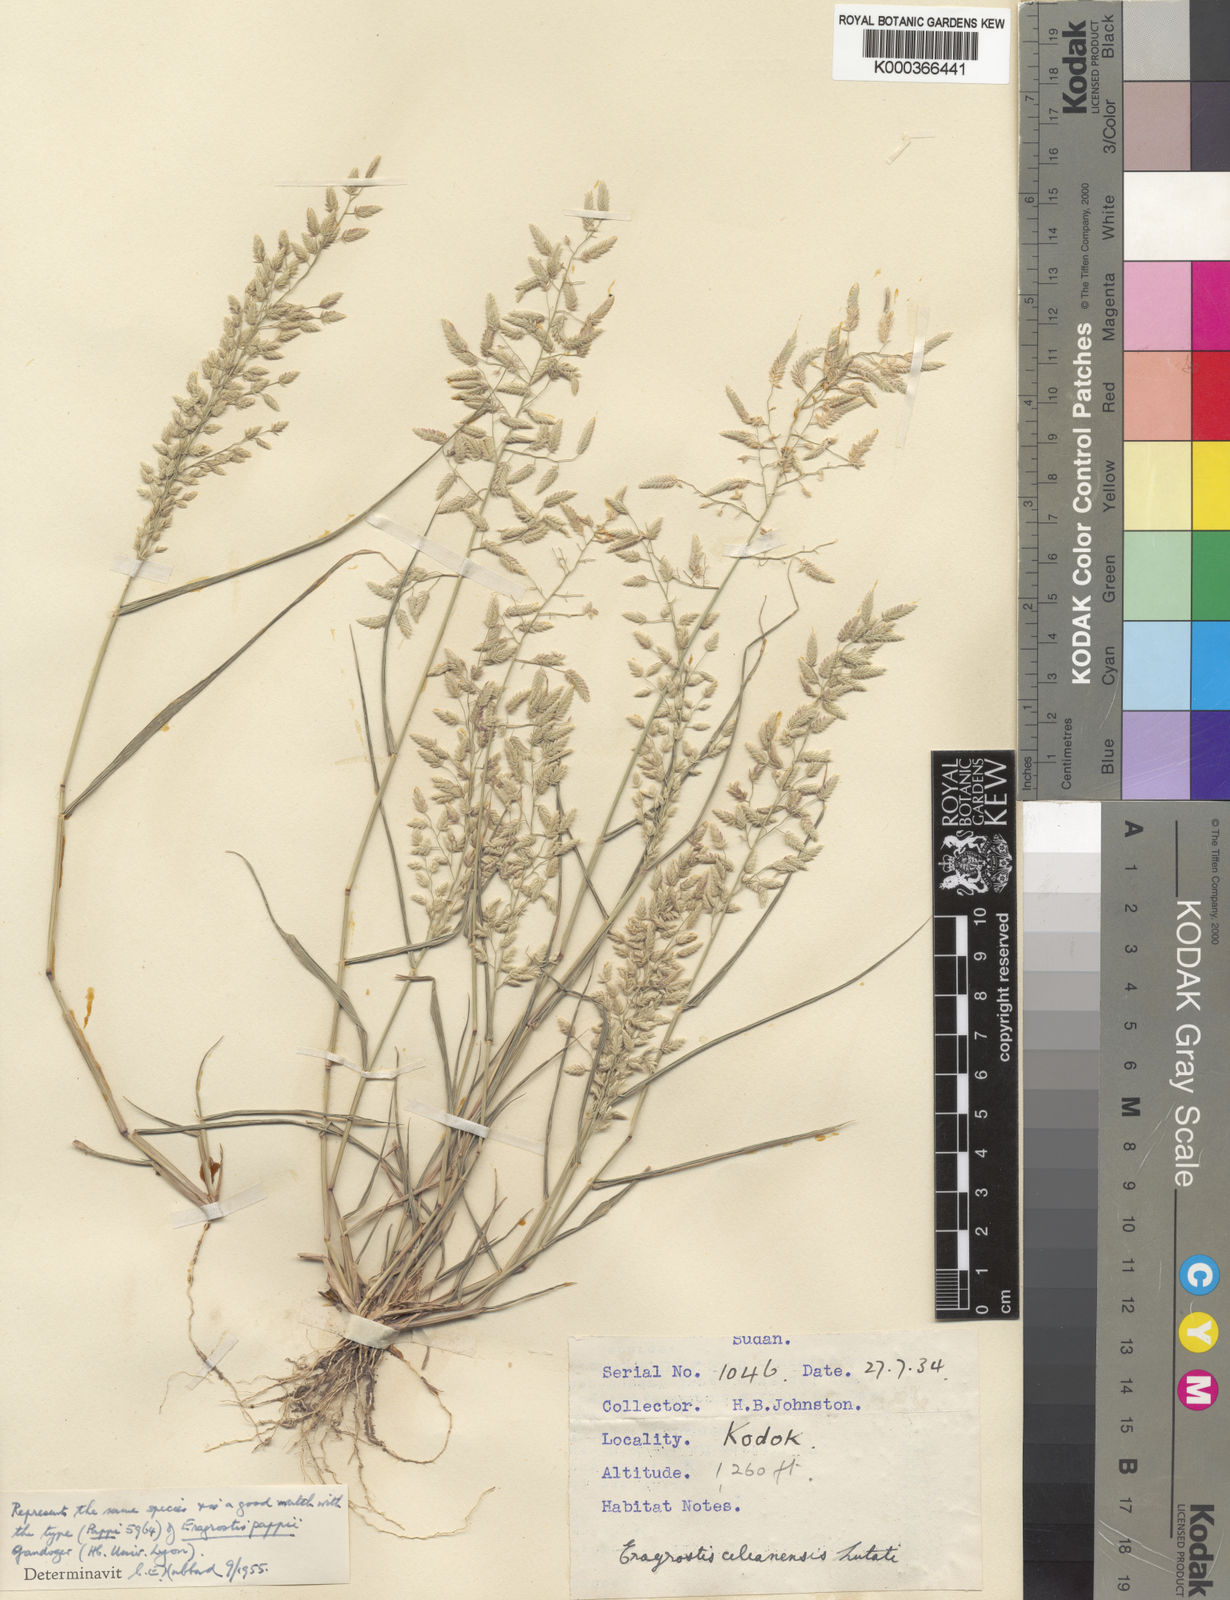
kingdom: Plantae
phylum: Tracheophyta
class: Liliopsida
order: Poales
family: Poaceae
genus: Eragrostis
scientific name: Eragrostis cilianensis
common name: Stinkgrass
